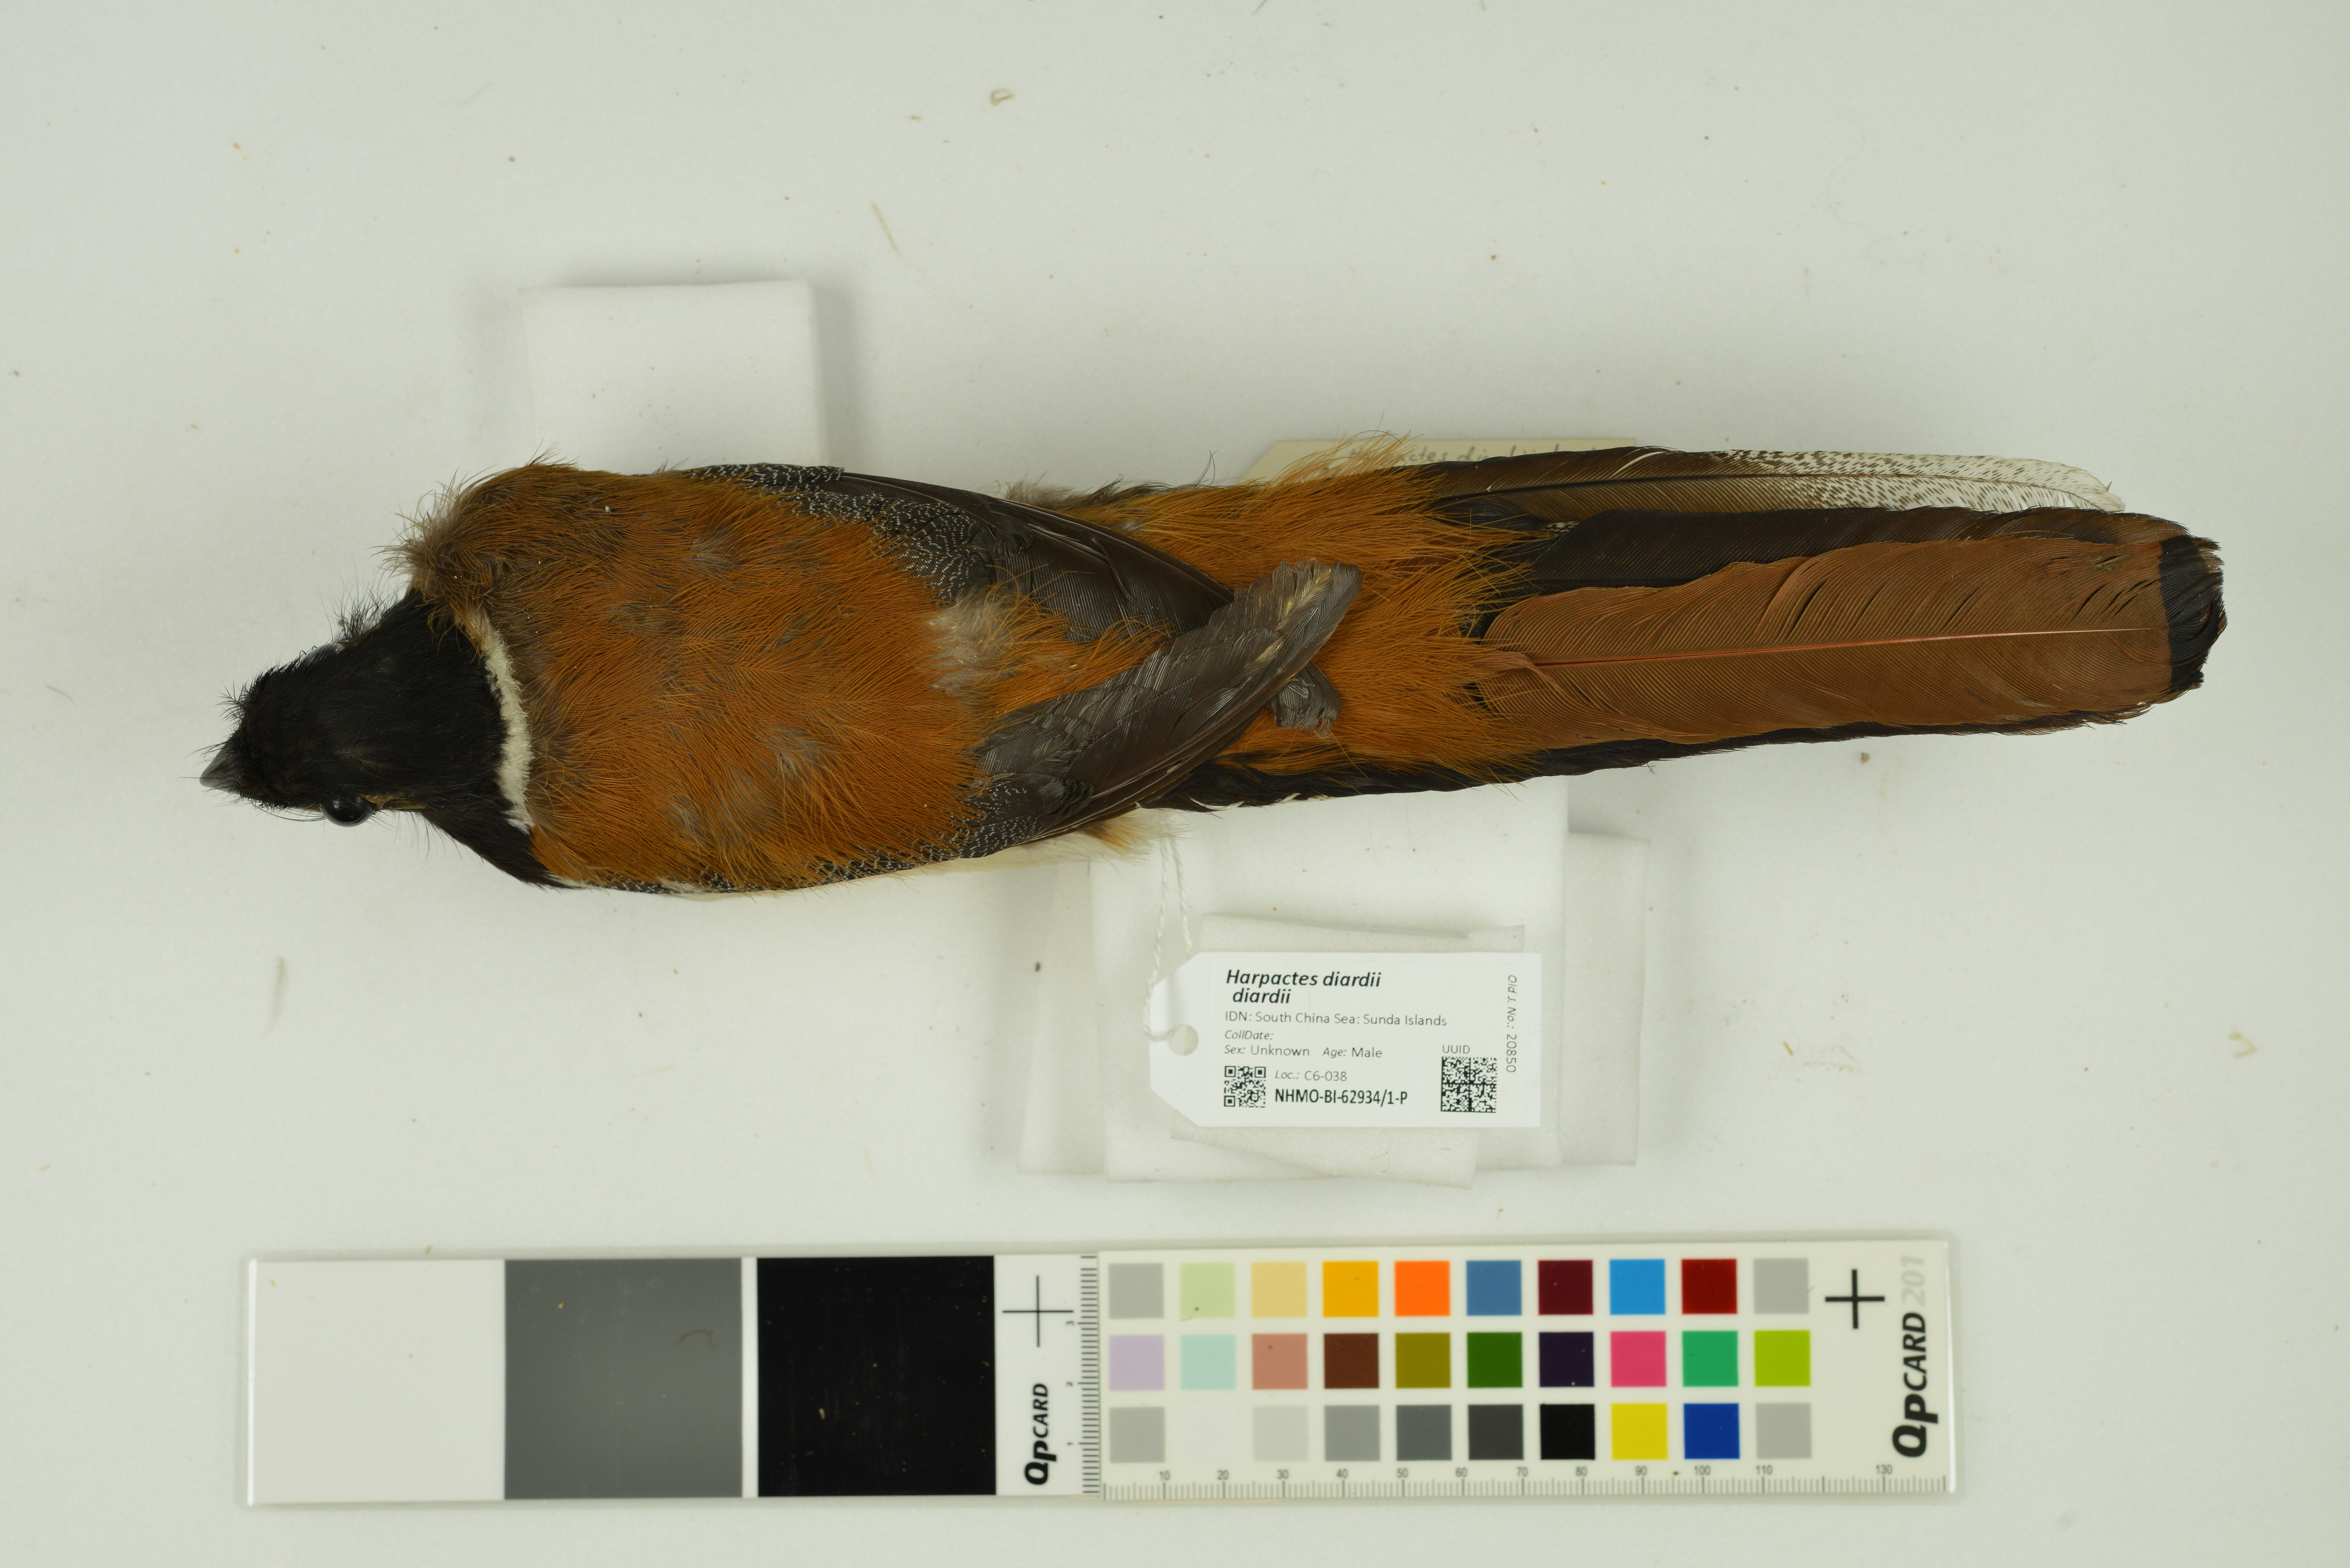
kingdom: Animalia
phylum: Chordata
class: Aves
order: Trogoniformes
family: Trogonidae
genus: Harpactes
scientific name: Harpactes diardii
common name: Diard's trogon
